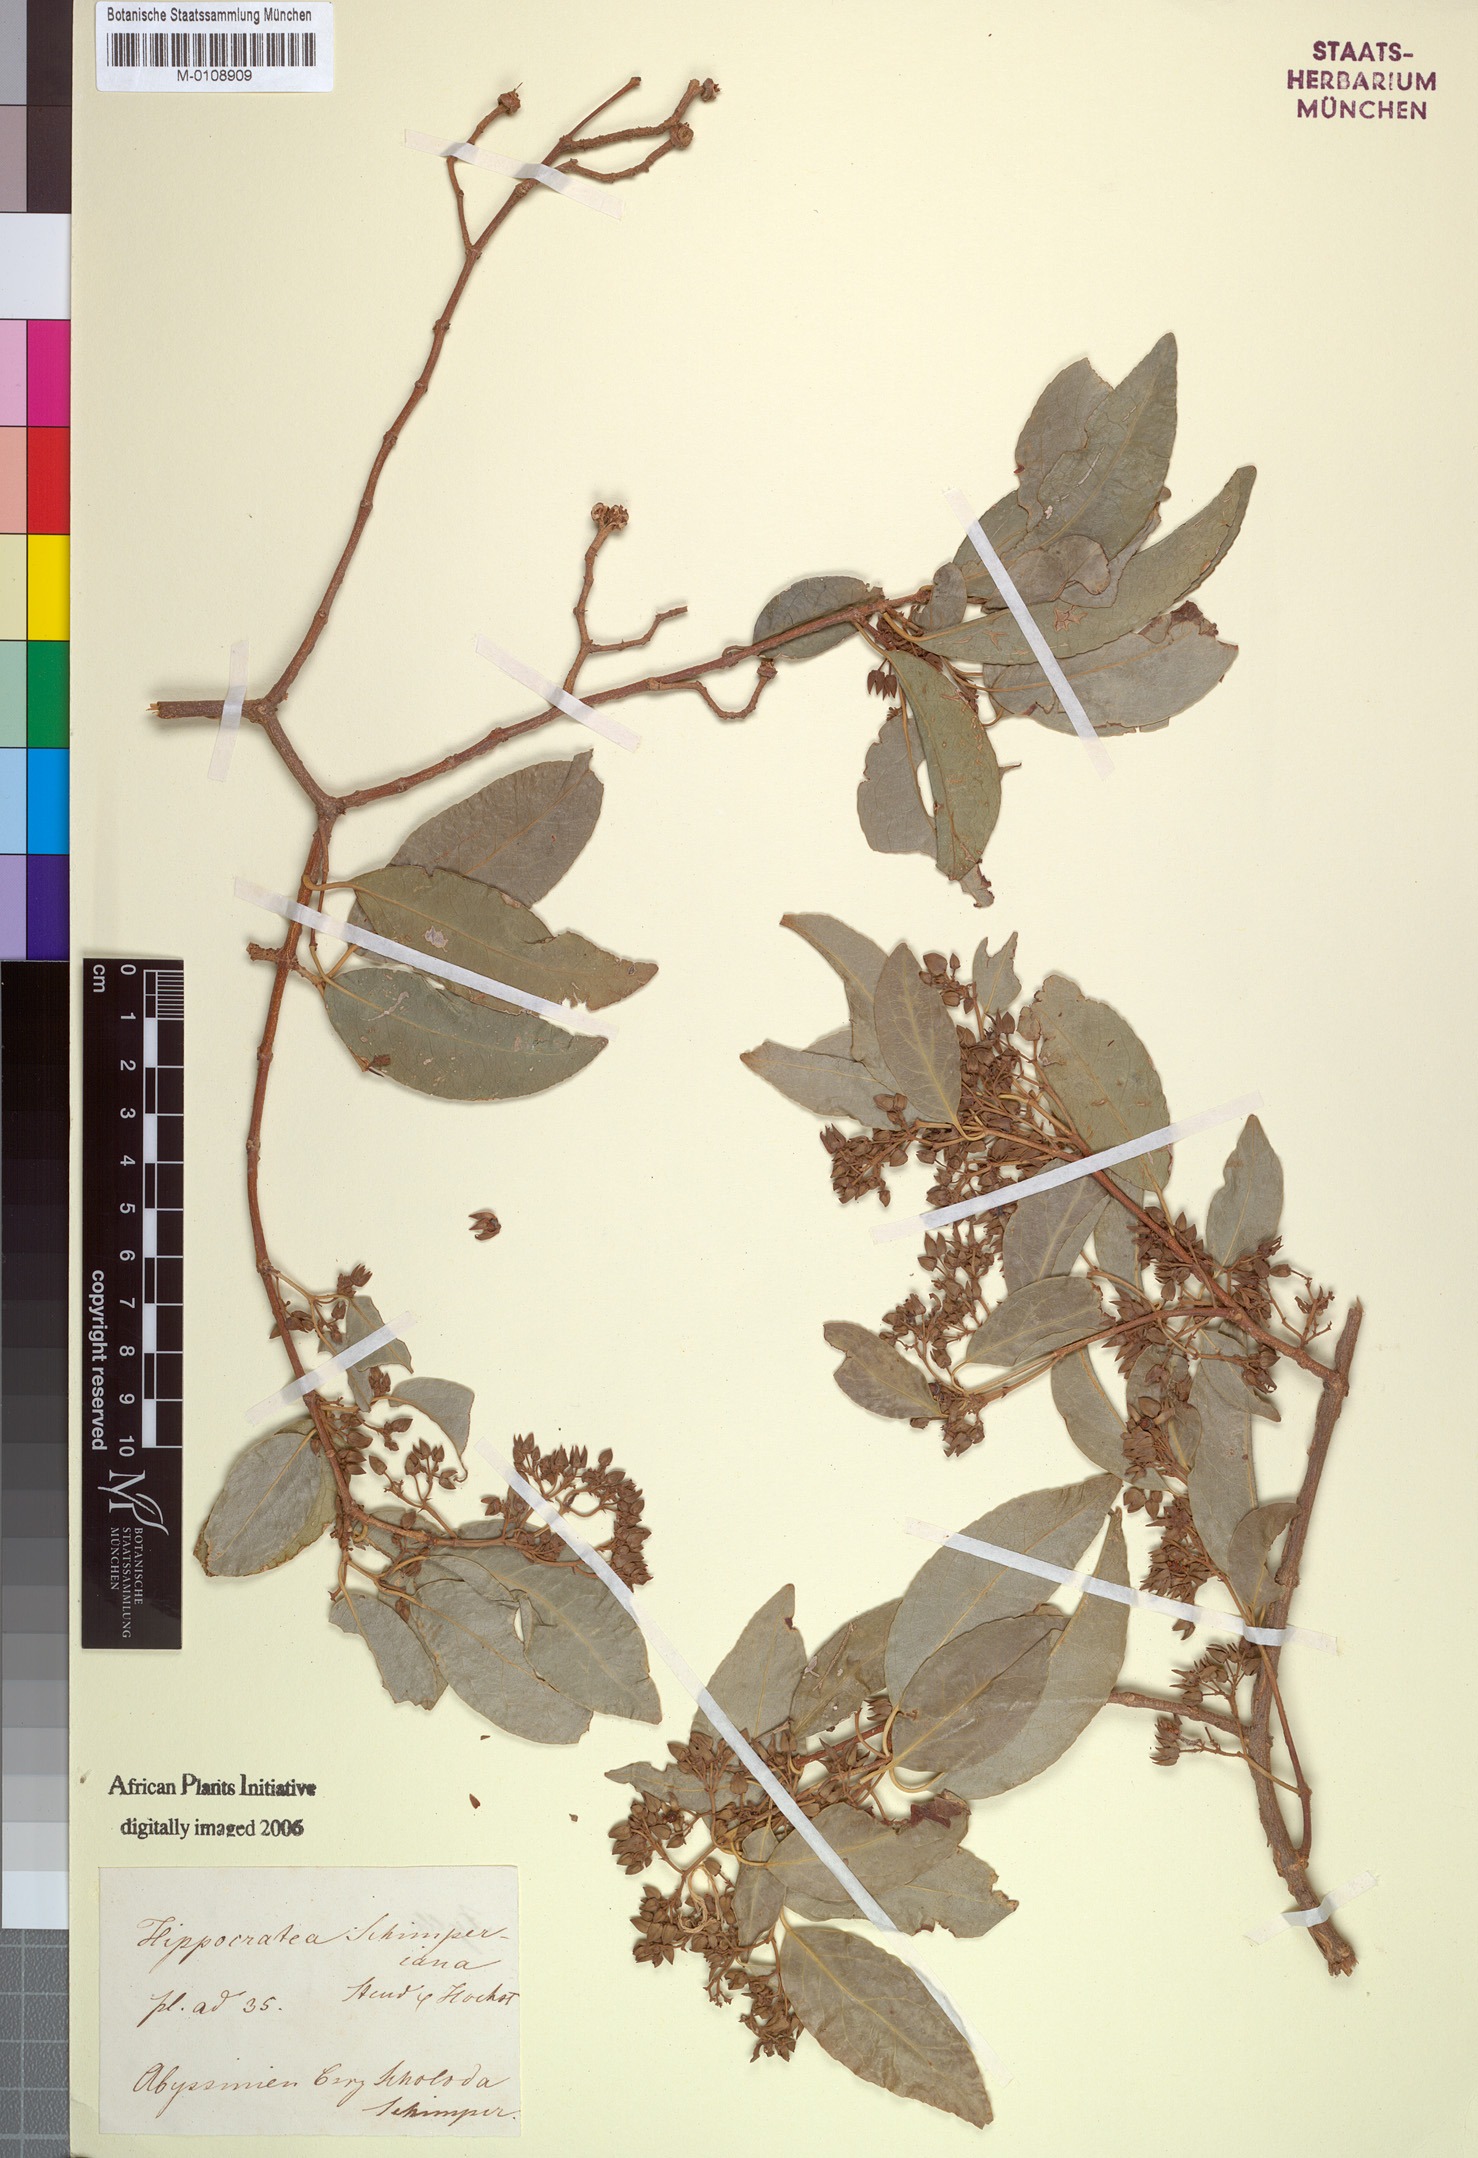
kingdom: Plantae
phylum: Tracheophyta
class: Magnoliopsida
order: Celastrales
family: Celastraceae
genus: Loeseneriella
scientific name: Loeseneriella africana
